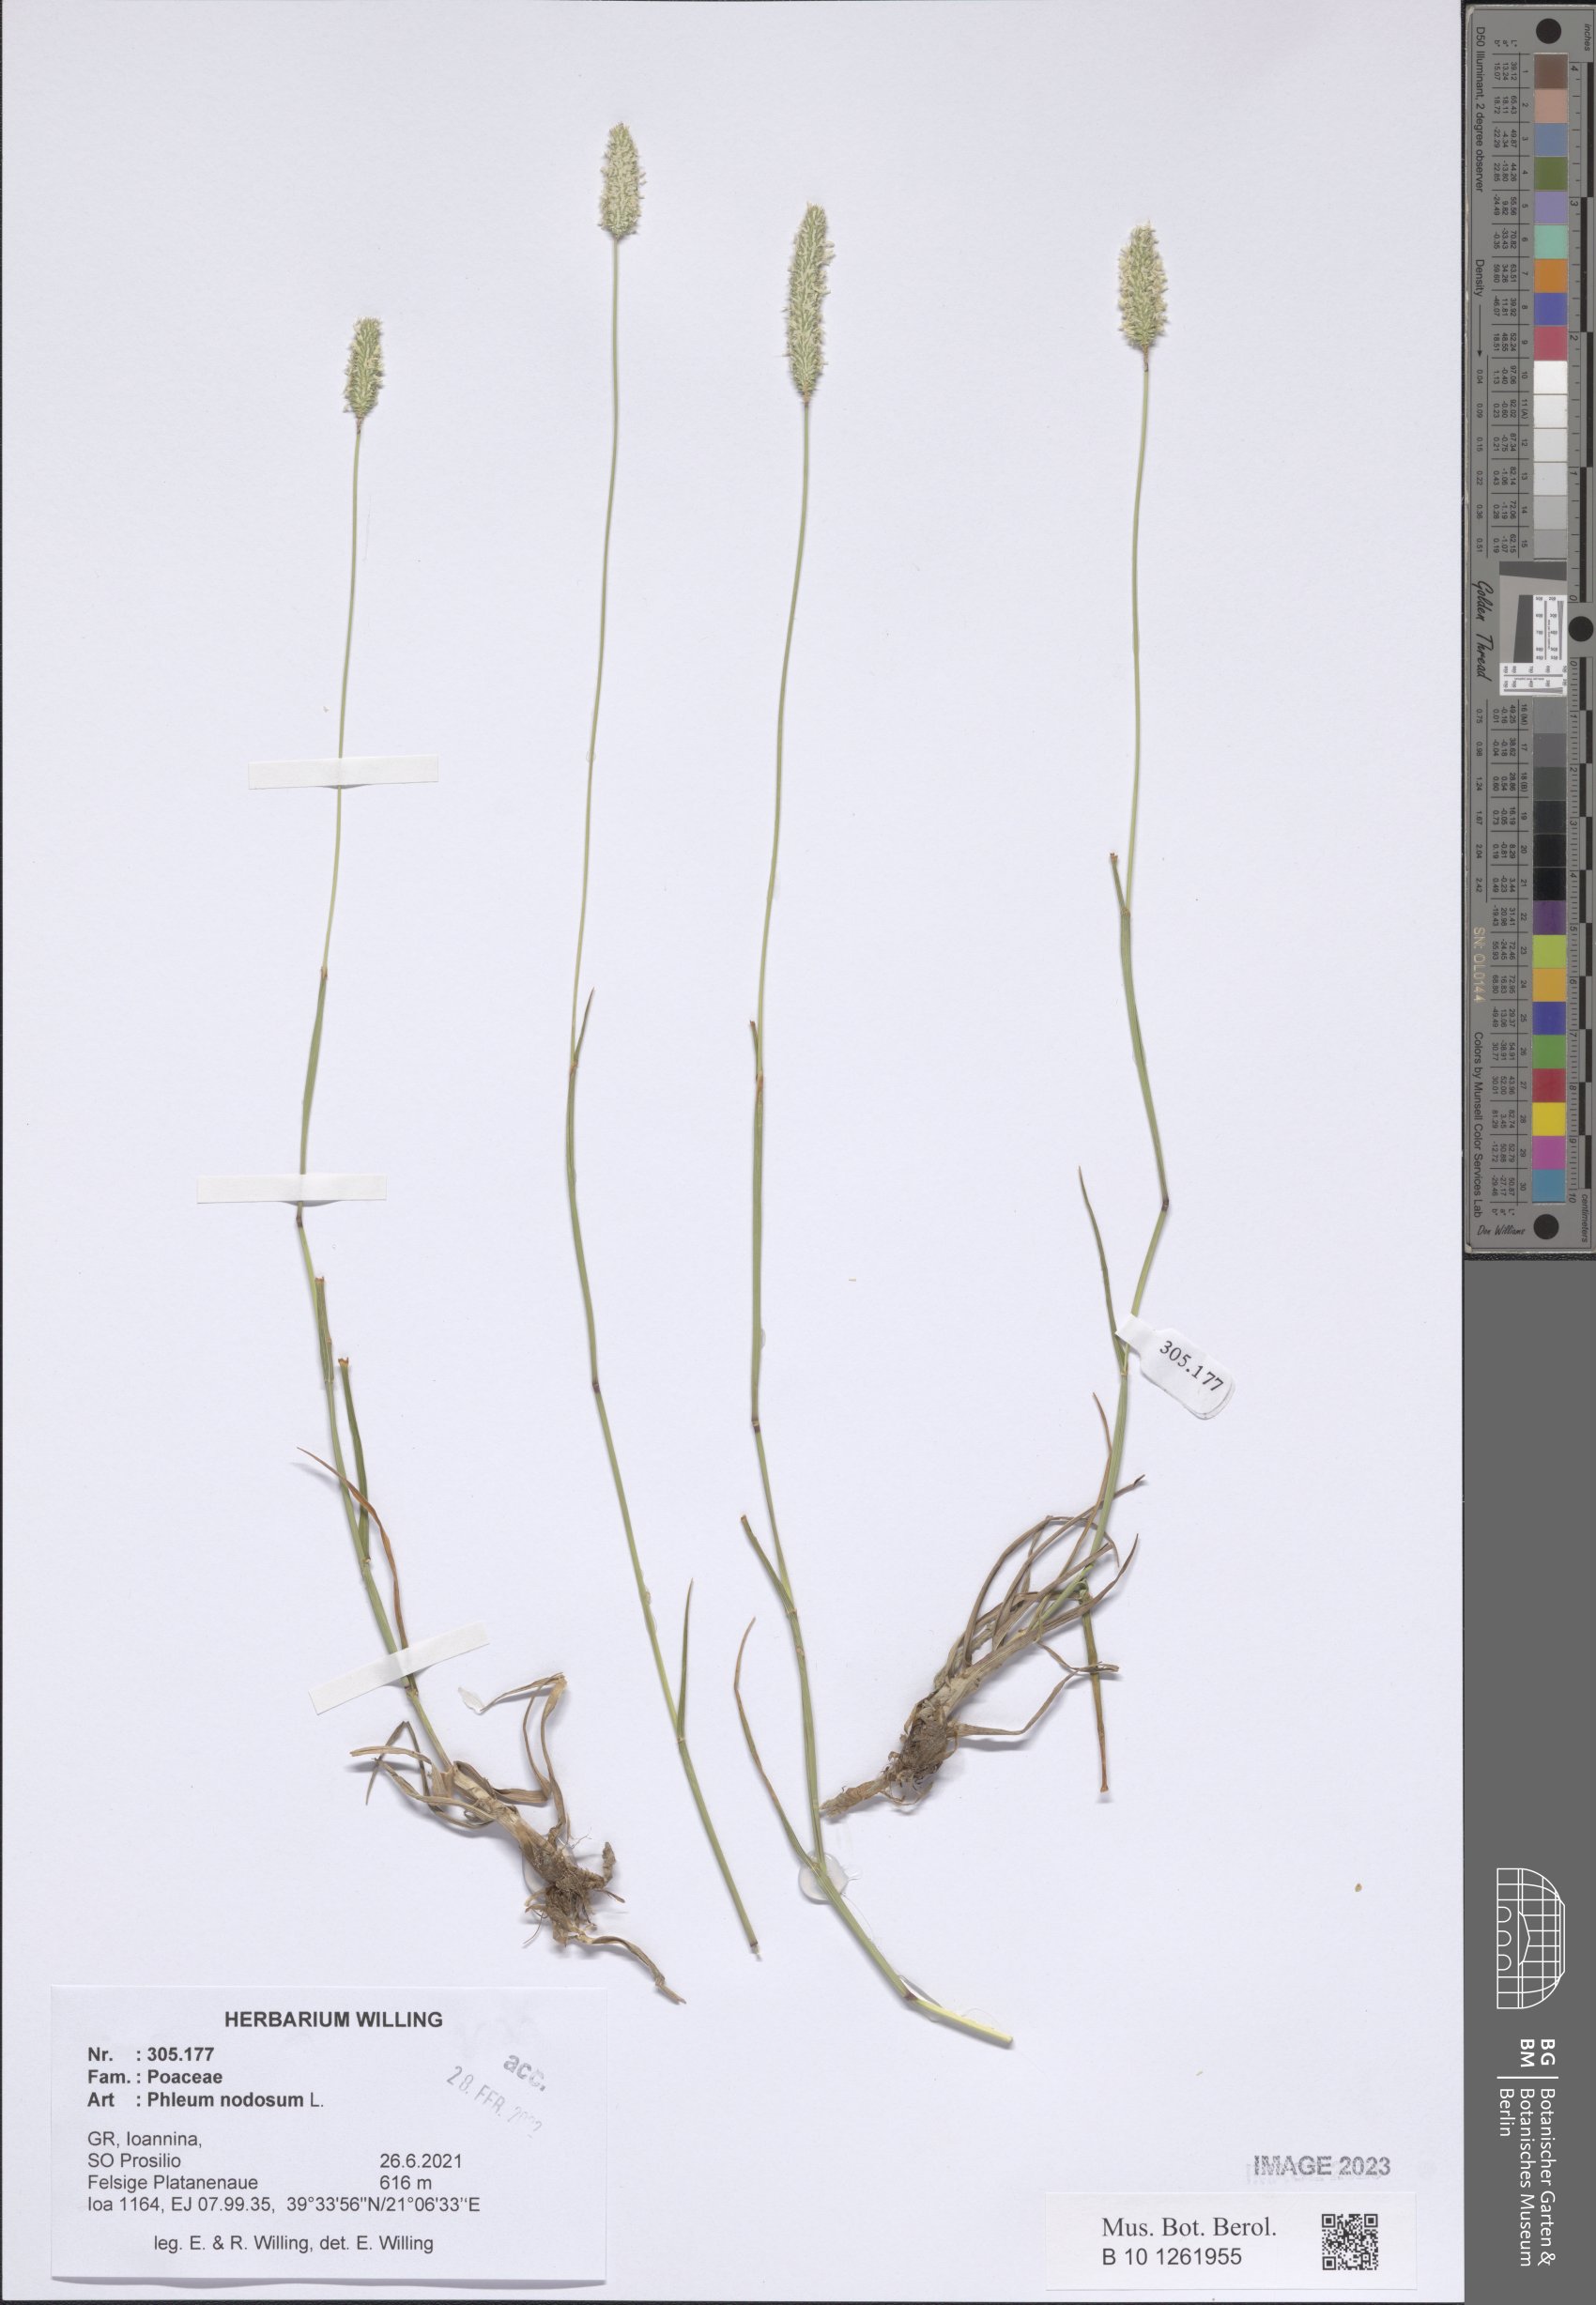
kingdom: Plantae
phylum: Tracheophyta
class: Liliopsida
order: Poales
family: Poaceae
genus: Phleum
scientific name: Phleum pratense
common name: Timothy grass
